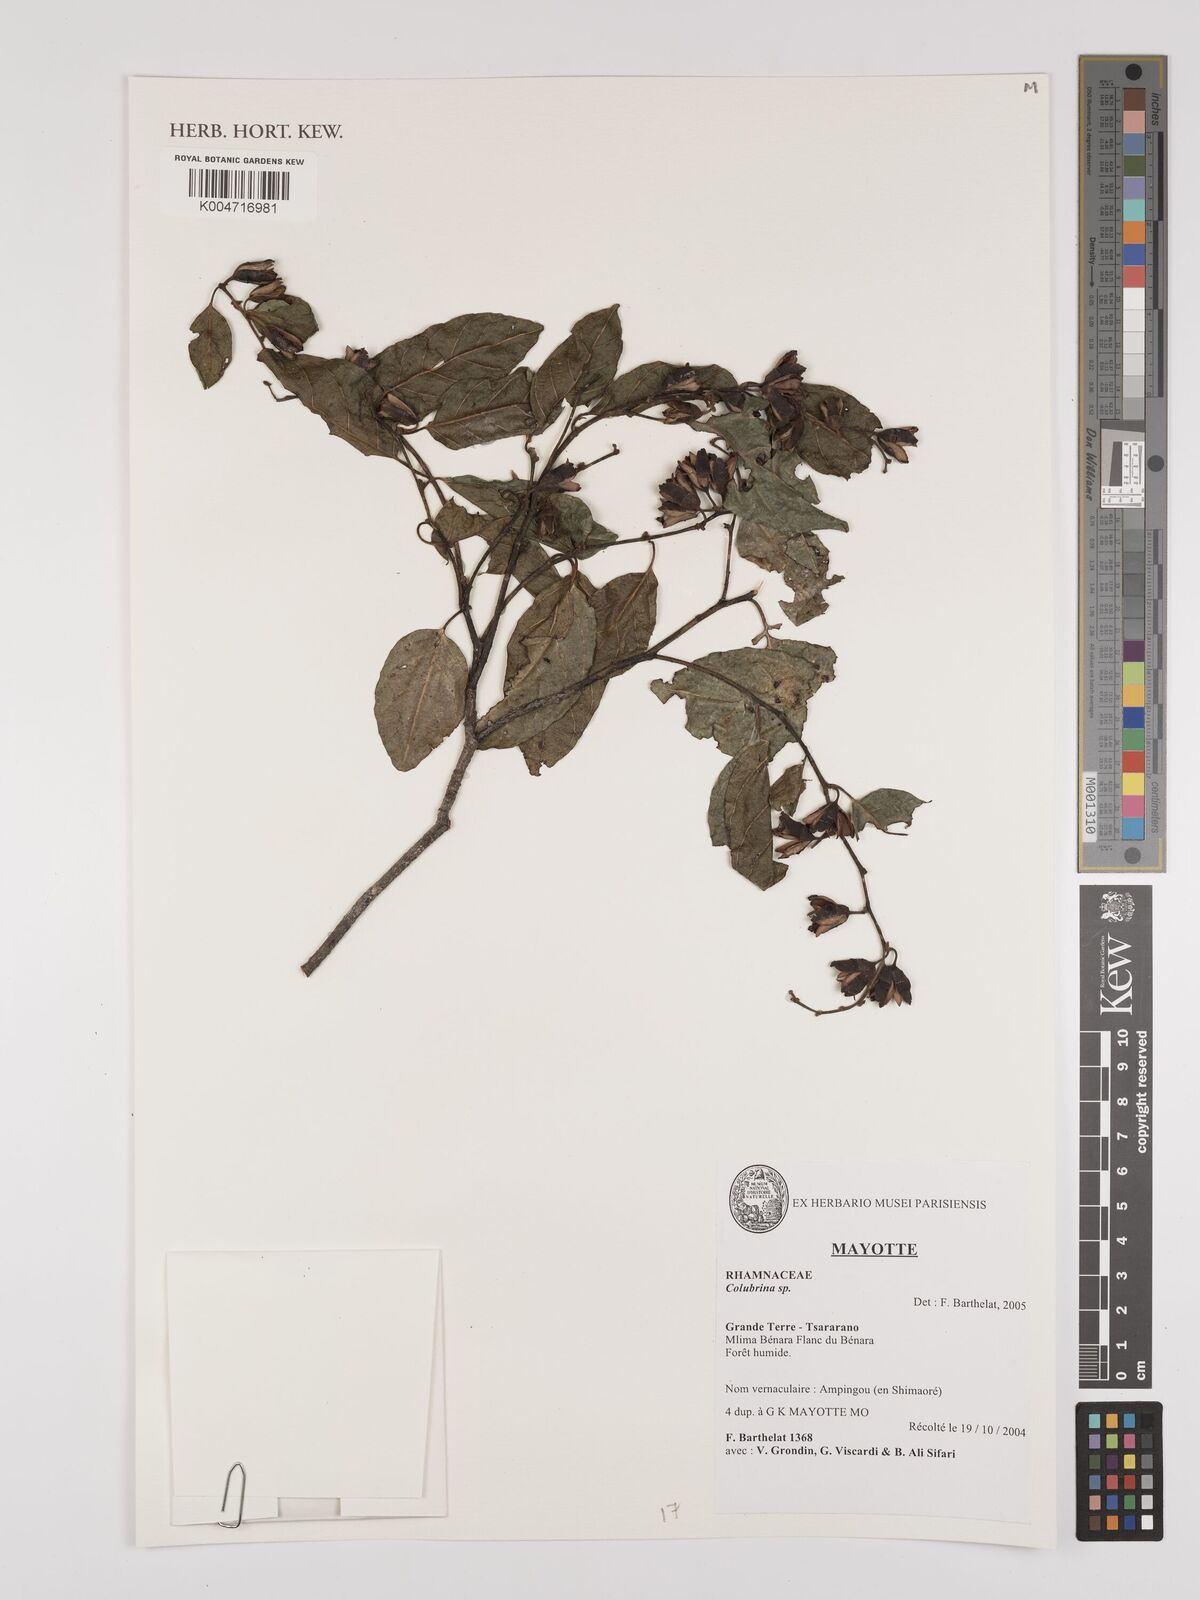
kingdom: Plantae
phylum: Tracheophyta
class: Magnoliopsida
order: Rosales
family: Rhamnaceae
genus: Colubrina
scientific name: Colubrina
